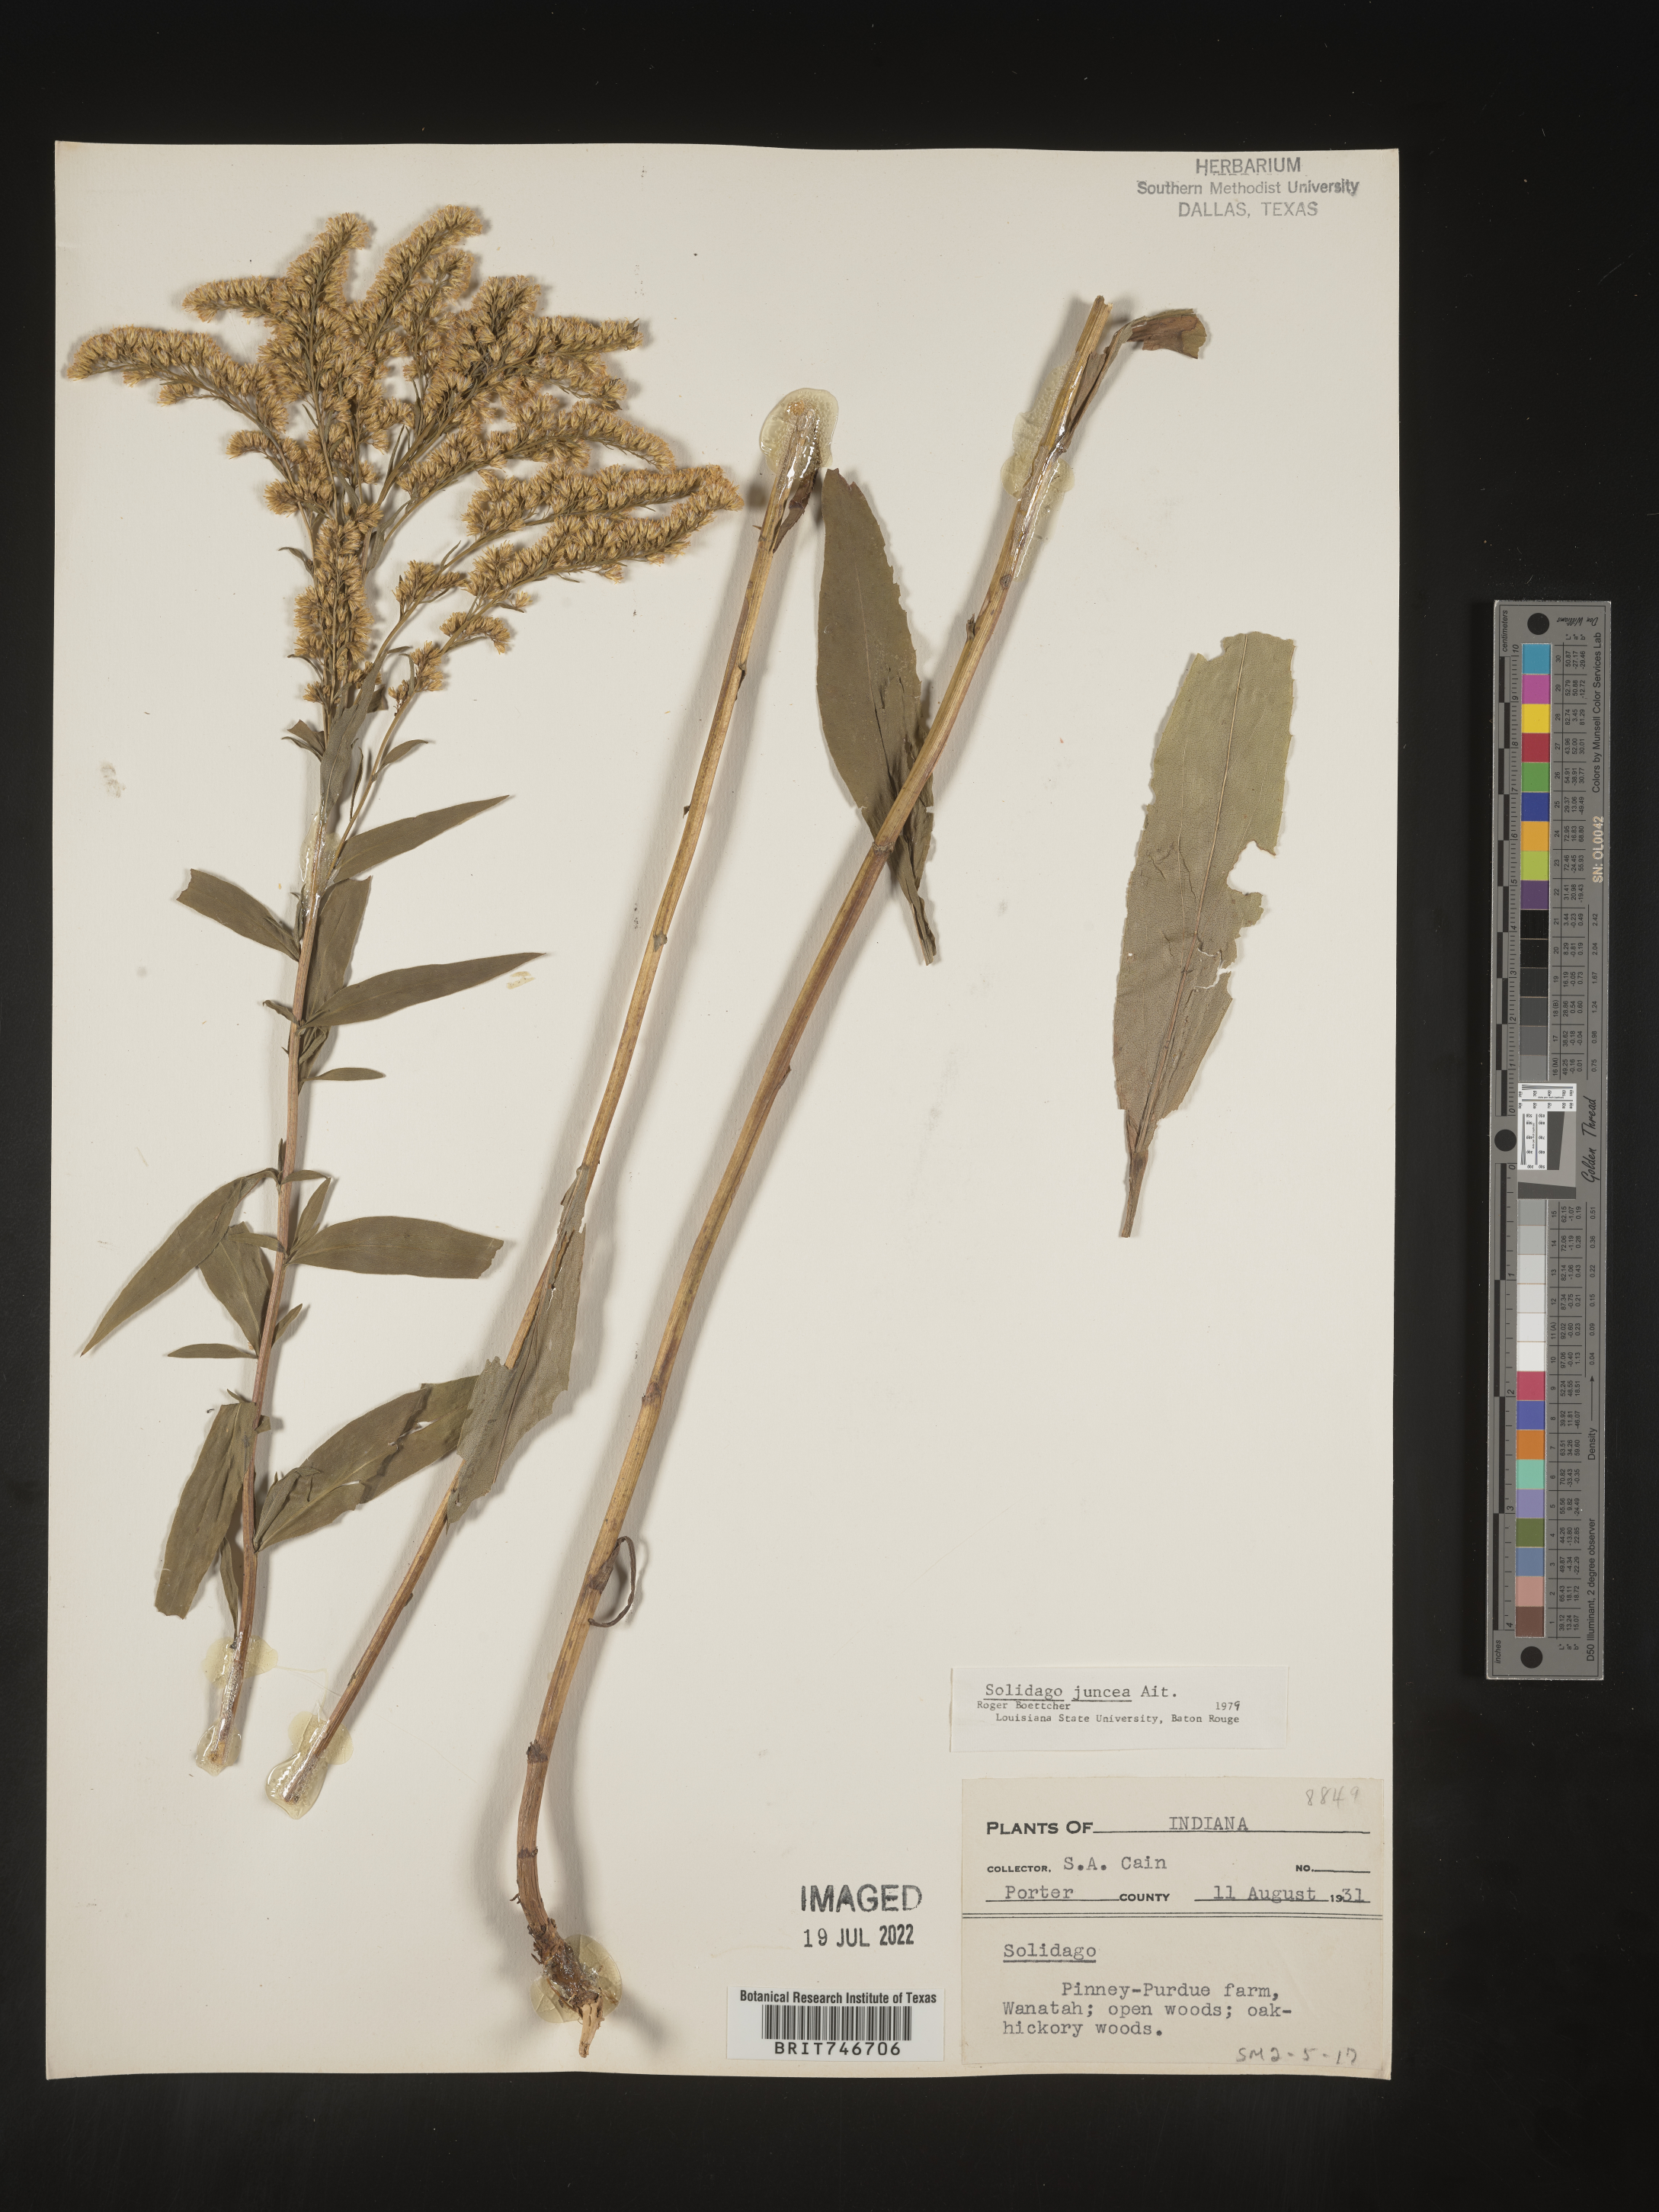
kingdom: Plantae
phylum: Tracheophyta
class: Magnoliopsida
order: Asterales
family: Asteraceae
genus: Solidago
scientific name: Solidago juncea
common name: Early goldenrod
